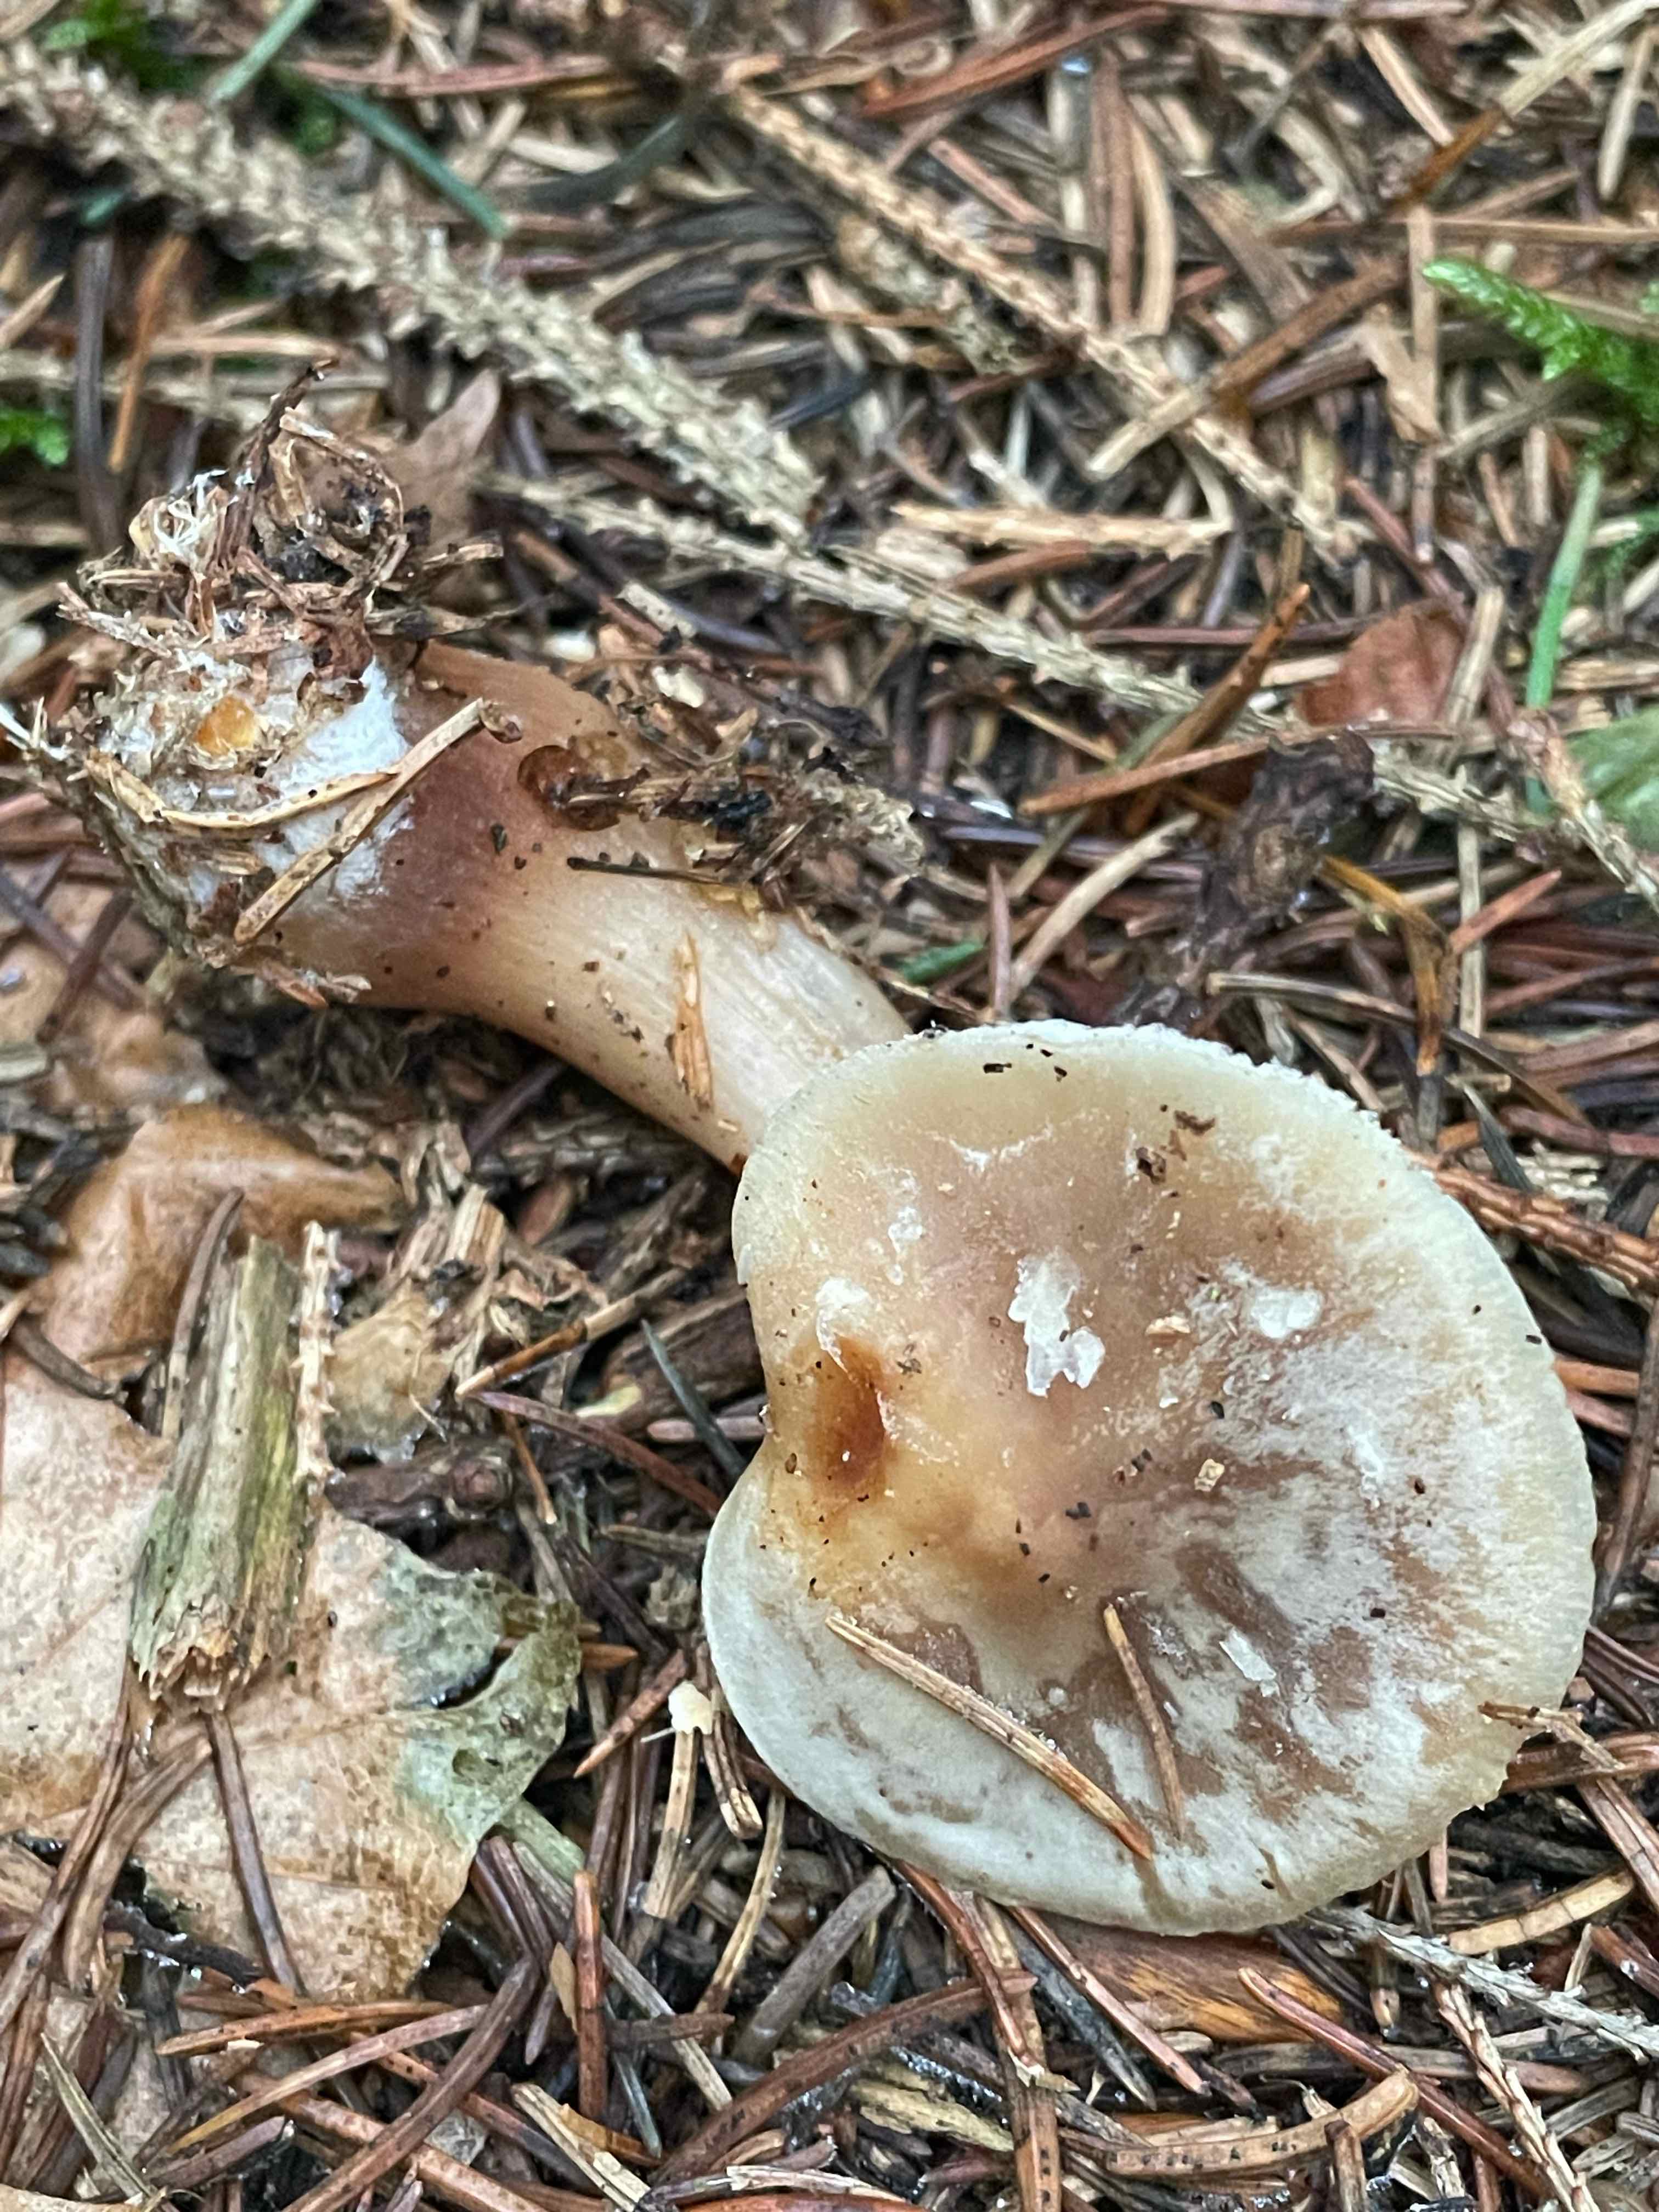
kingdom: Fungi
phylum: Basidiomycota
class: Agaricomycetes
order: Agaricales
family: Omphalotaceae
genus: Rhodocollybia
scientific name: Rhodocollybia asema
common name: horngrå fladhat
